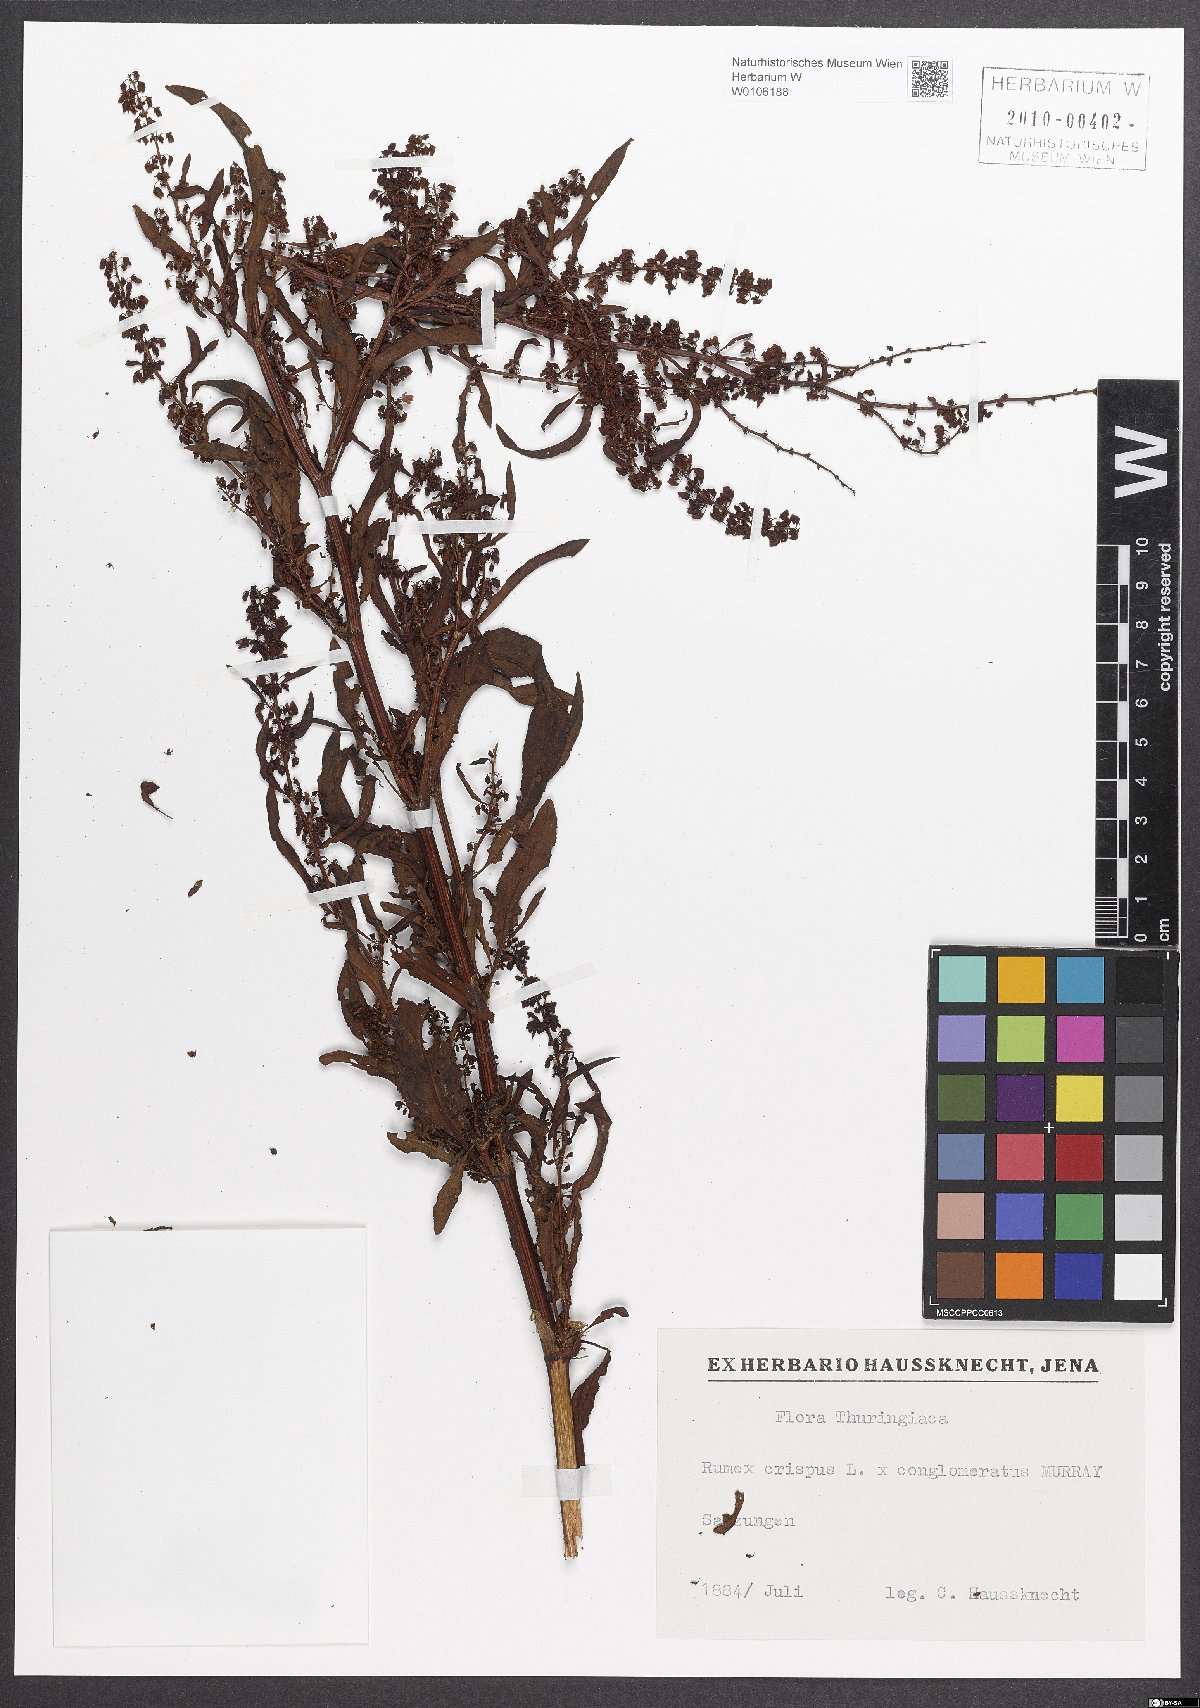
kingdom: Plantae
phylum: Tracheophyta
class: Magnoliopsida
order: Caryophyllales
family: Polygonaceae
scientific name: Polygonaceae
